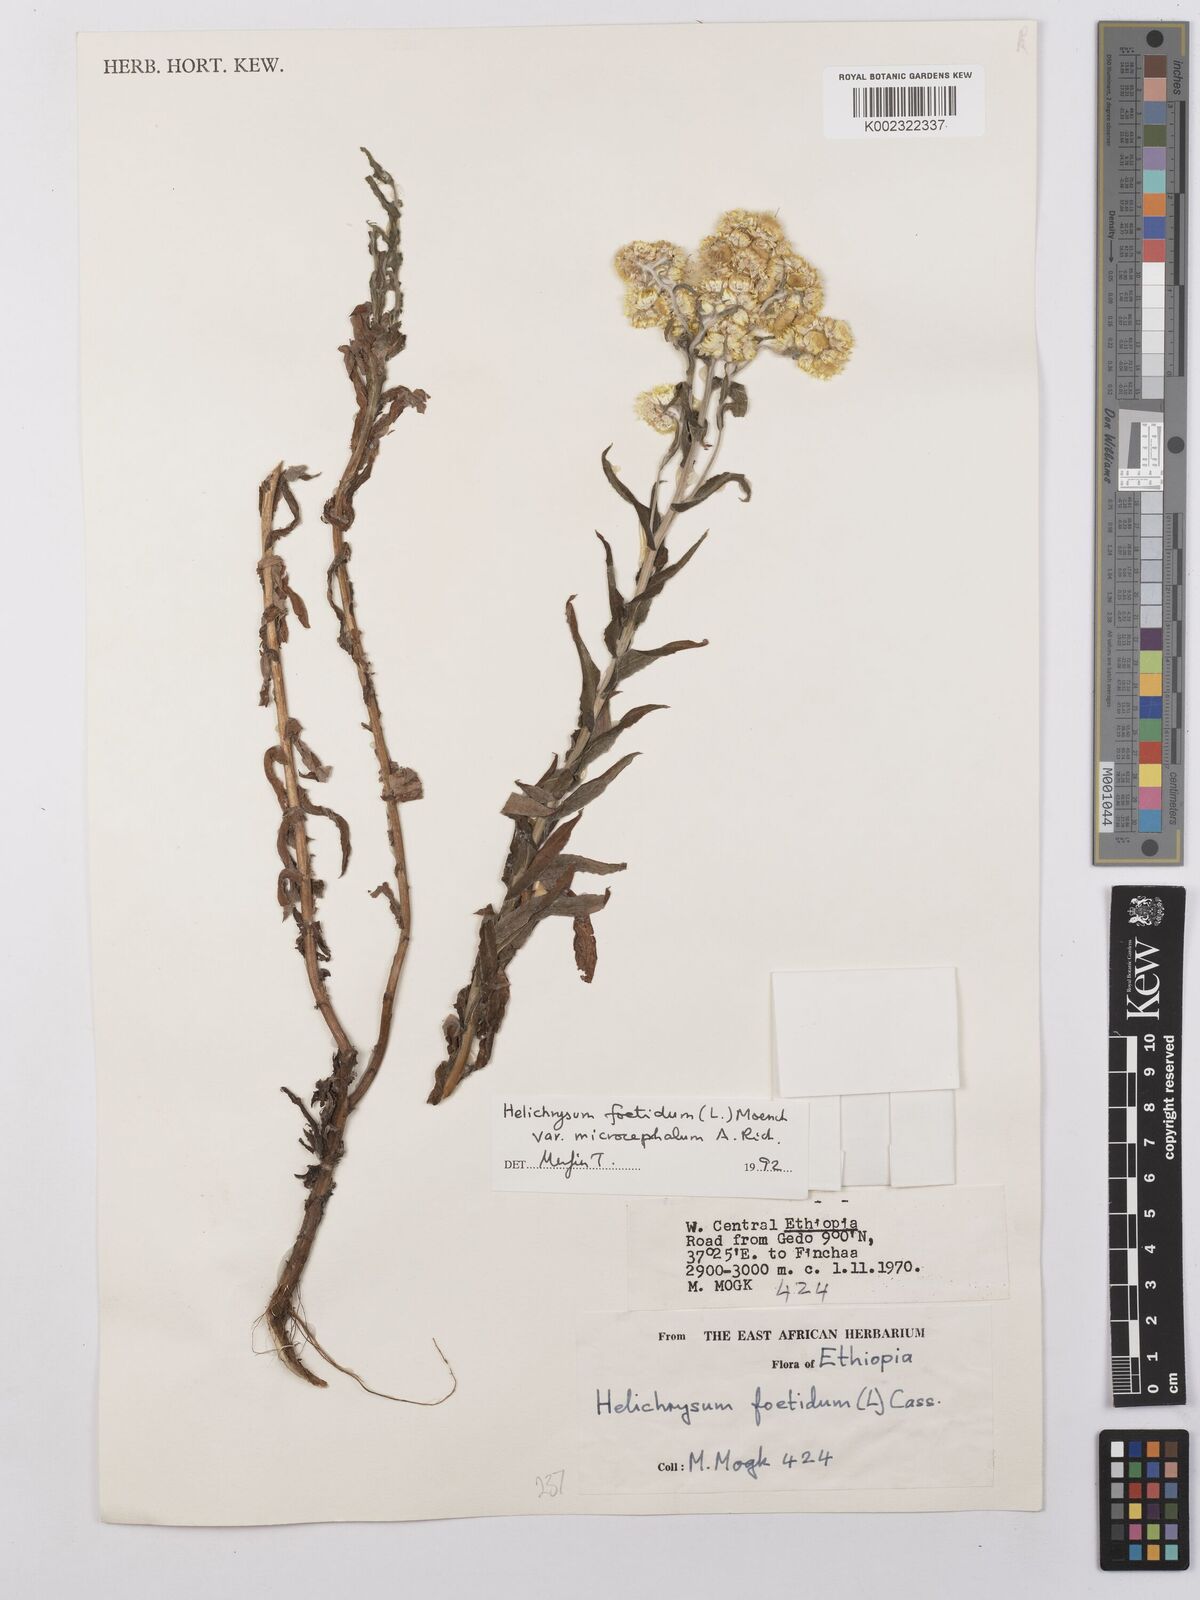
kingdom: Plantae
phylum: Tracheophyta
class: Magnoliopsida
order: Asterales
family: Asteraceae
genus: Helichrysum
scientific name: Helichrysum foetidum
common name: Stinking everlasting
